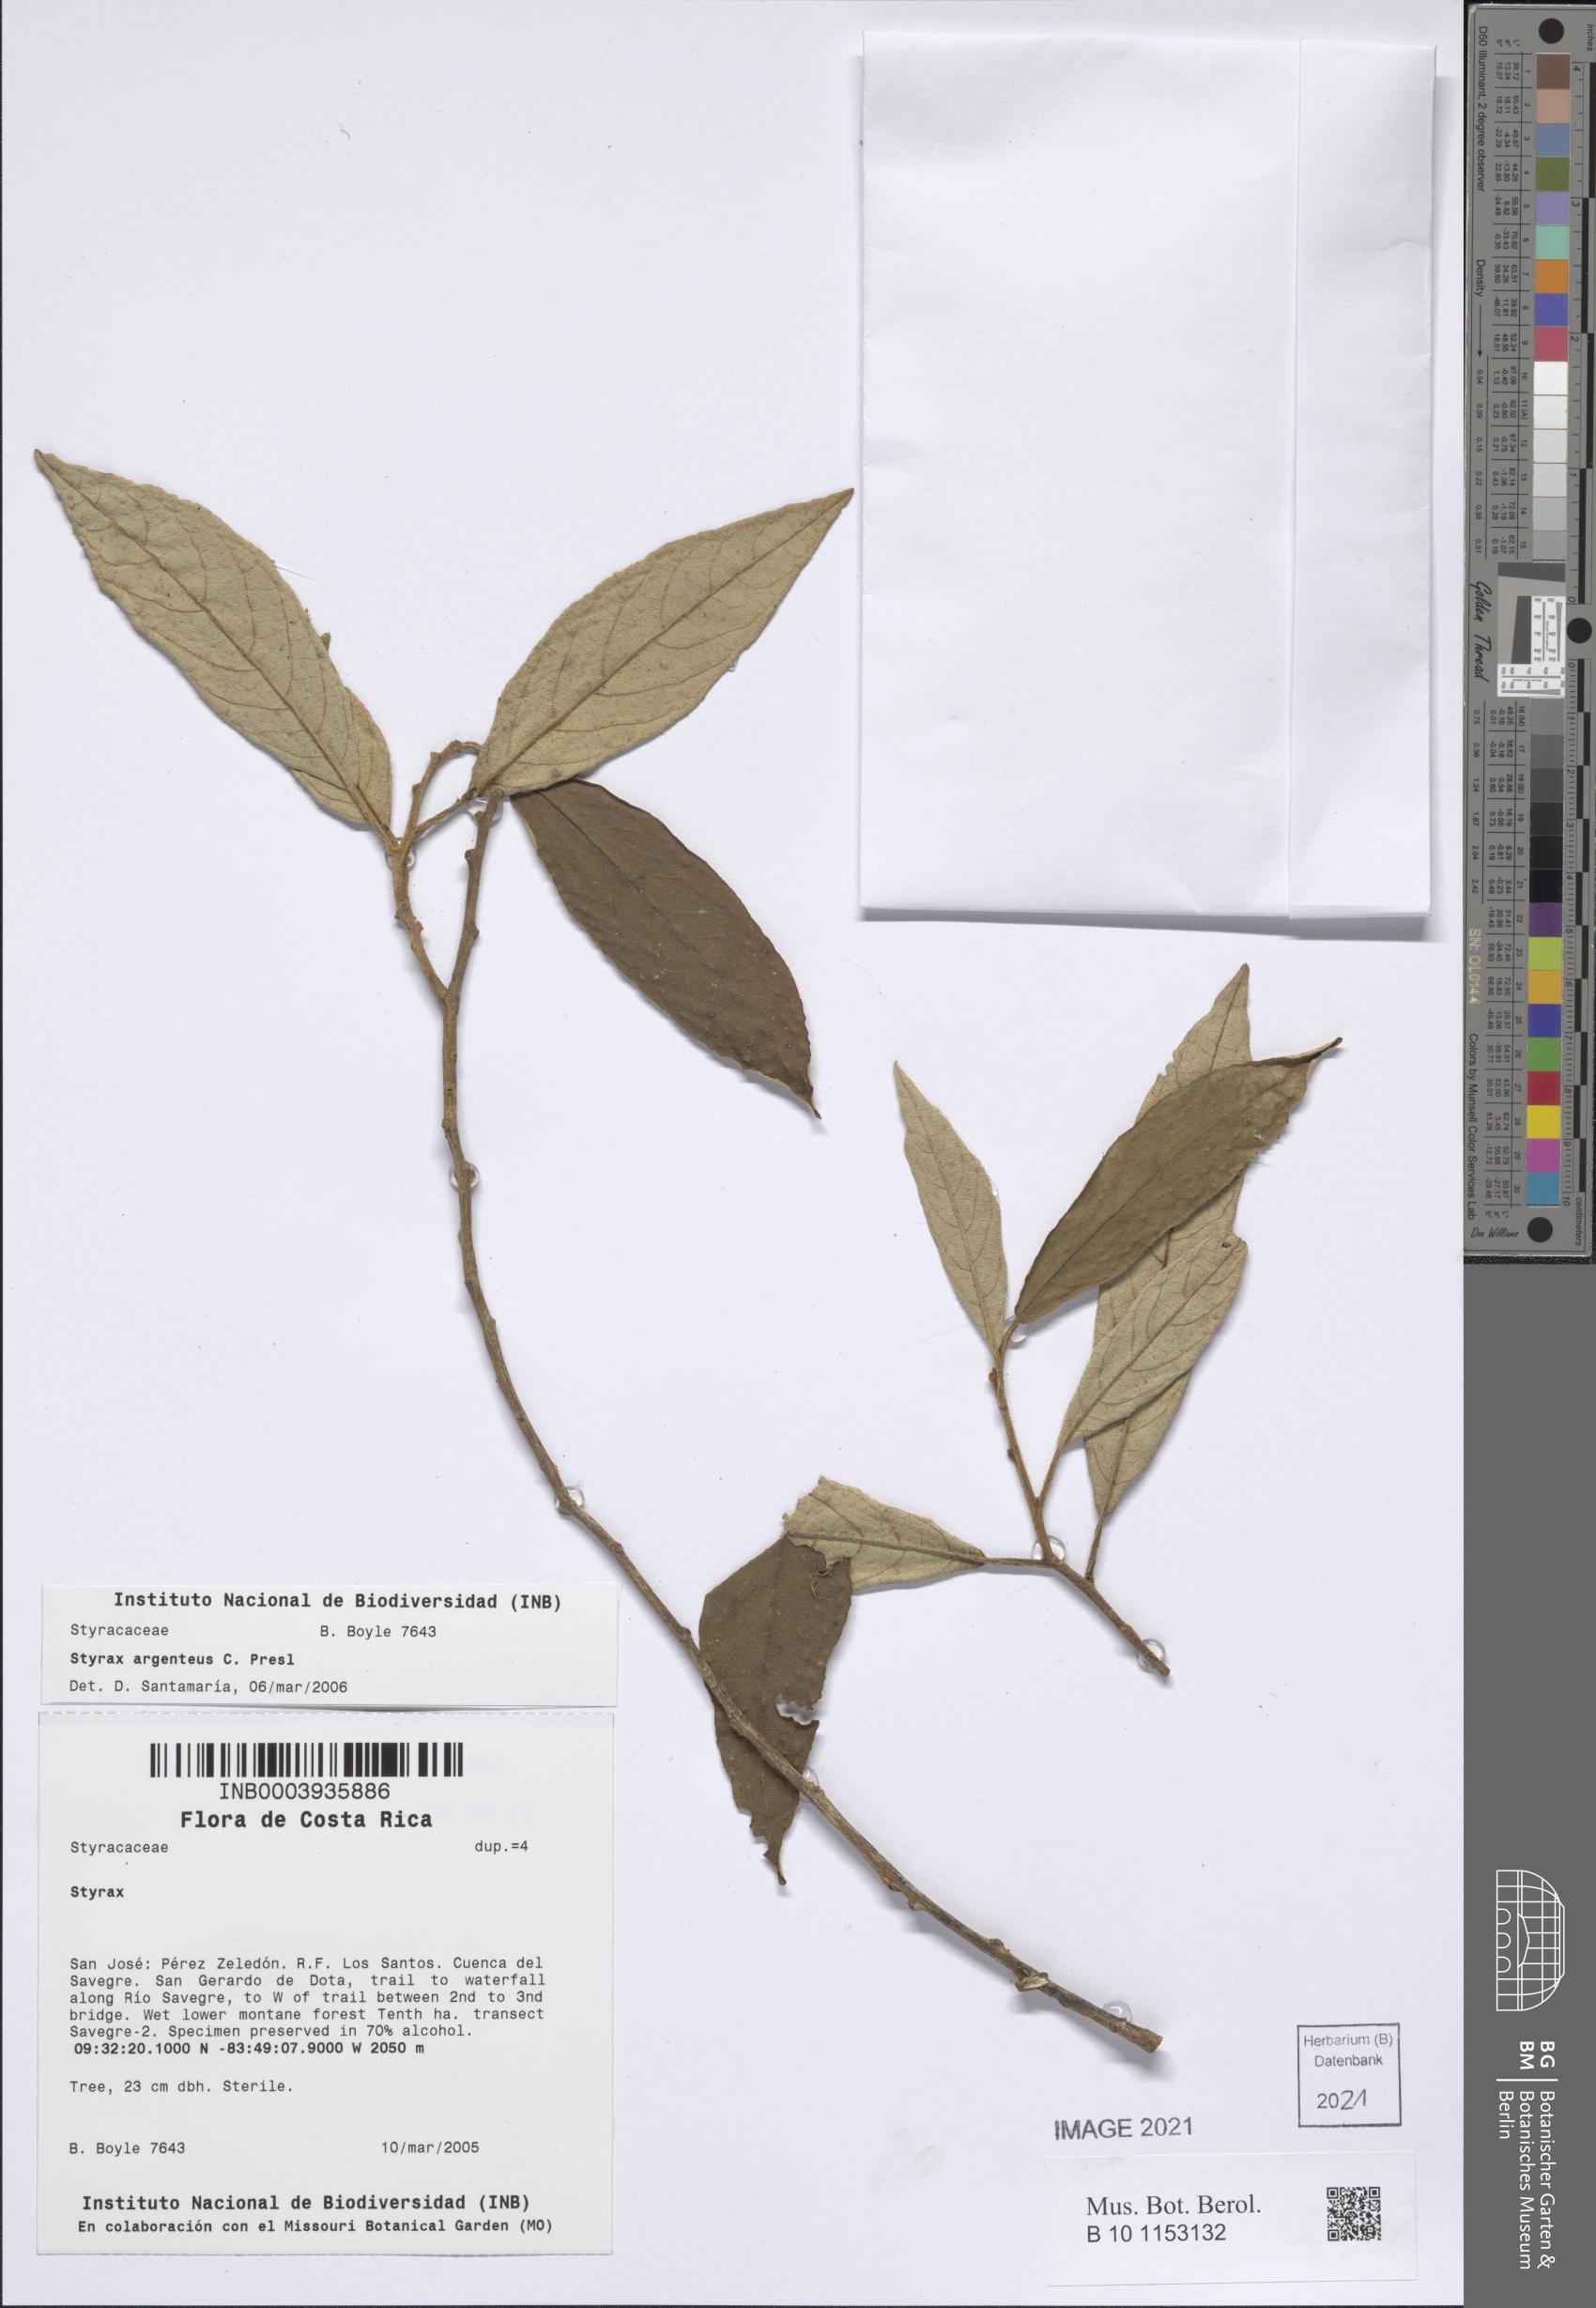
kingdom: Plantae
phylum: Tracheophyta
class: Magnoliopsida
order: Ericales
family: Styracaceae
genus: Styrax
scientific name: Styrax warscewiczii
